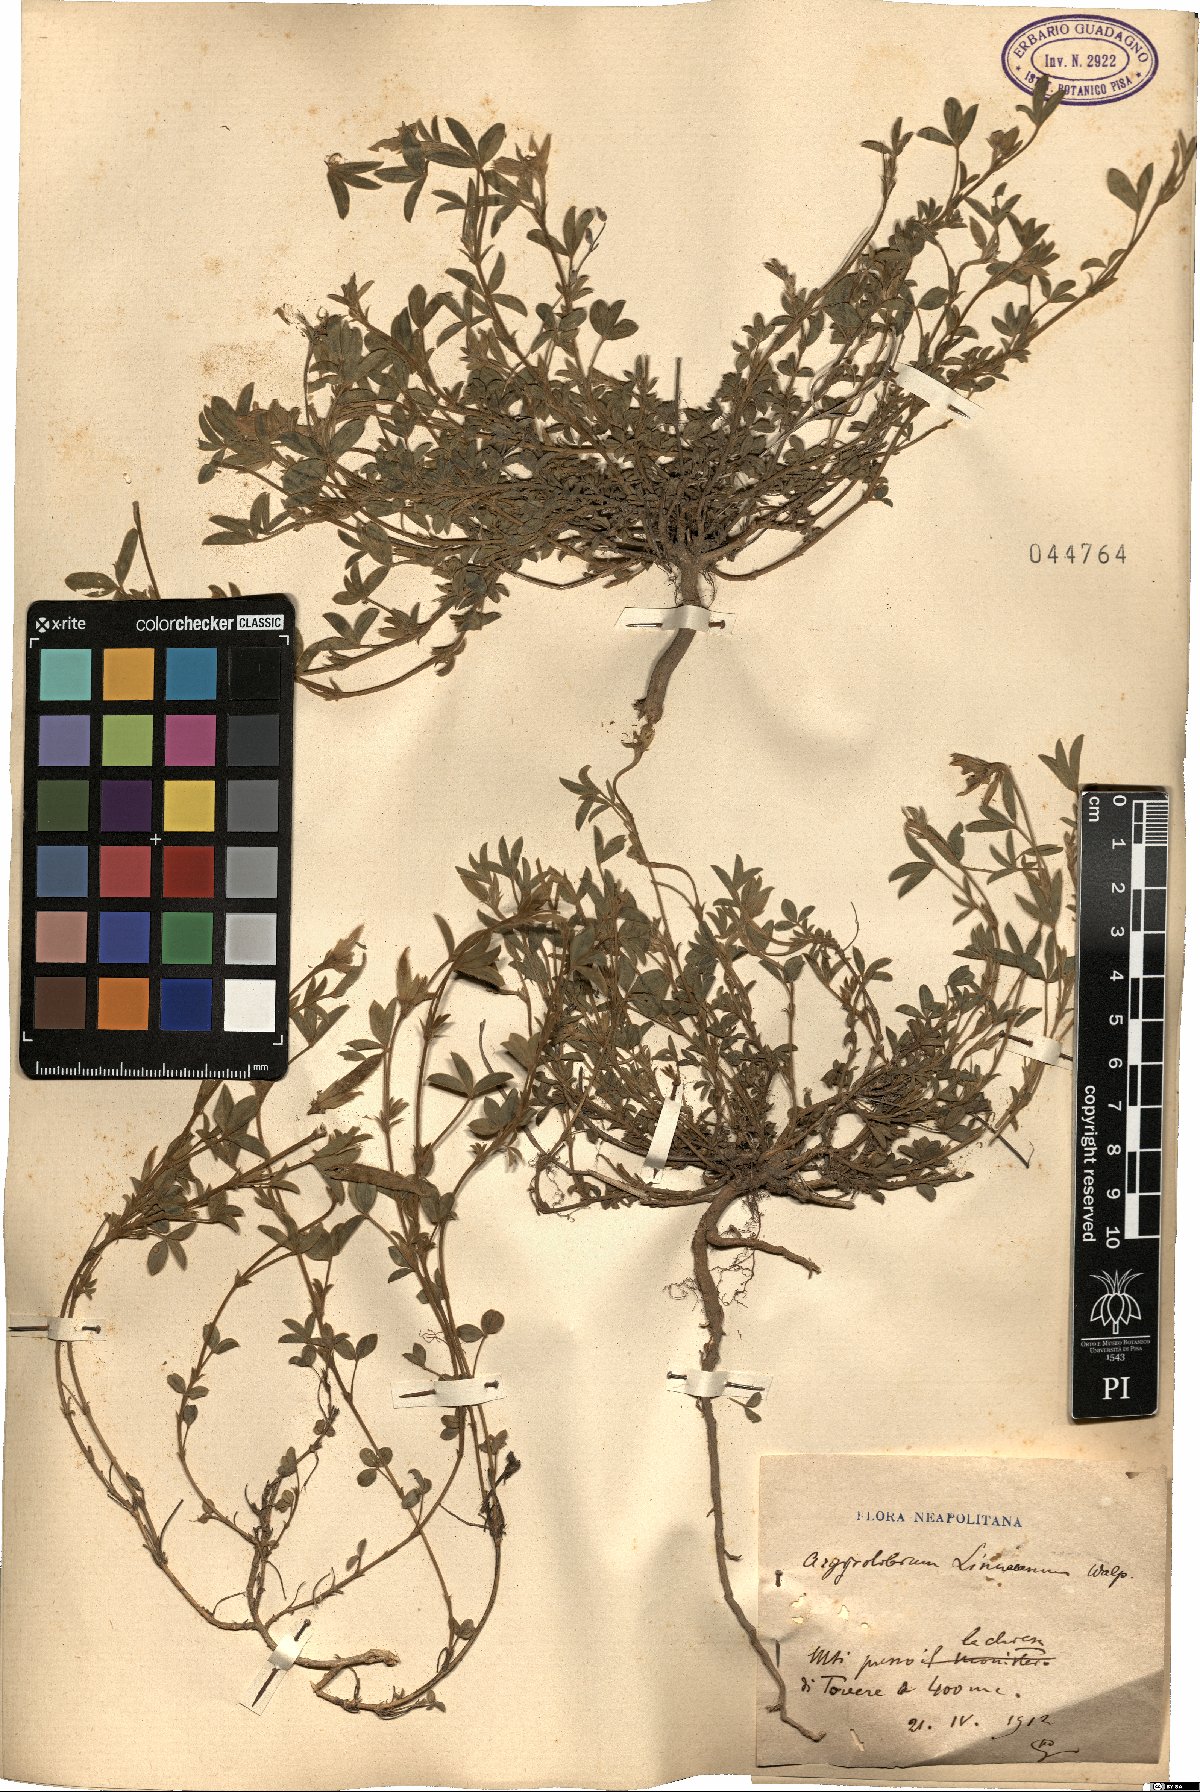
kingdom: Plantae
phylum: Tracheophyta
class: Magnoliopsida
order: Fabales
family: Fabaceae
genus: Argyrolobium
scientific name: Argyrolobium zanonii
